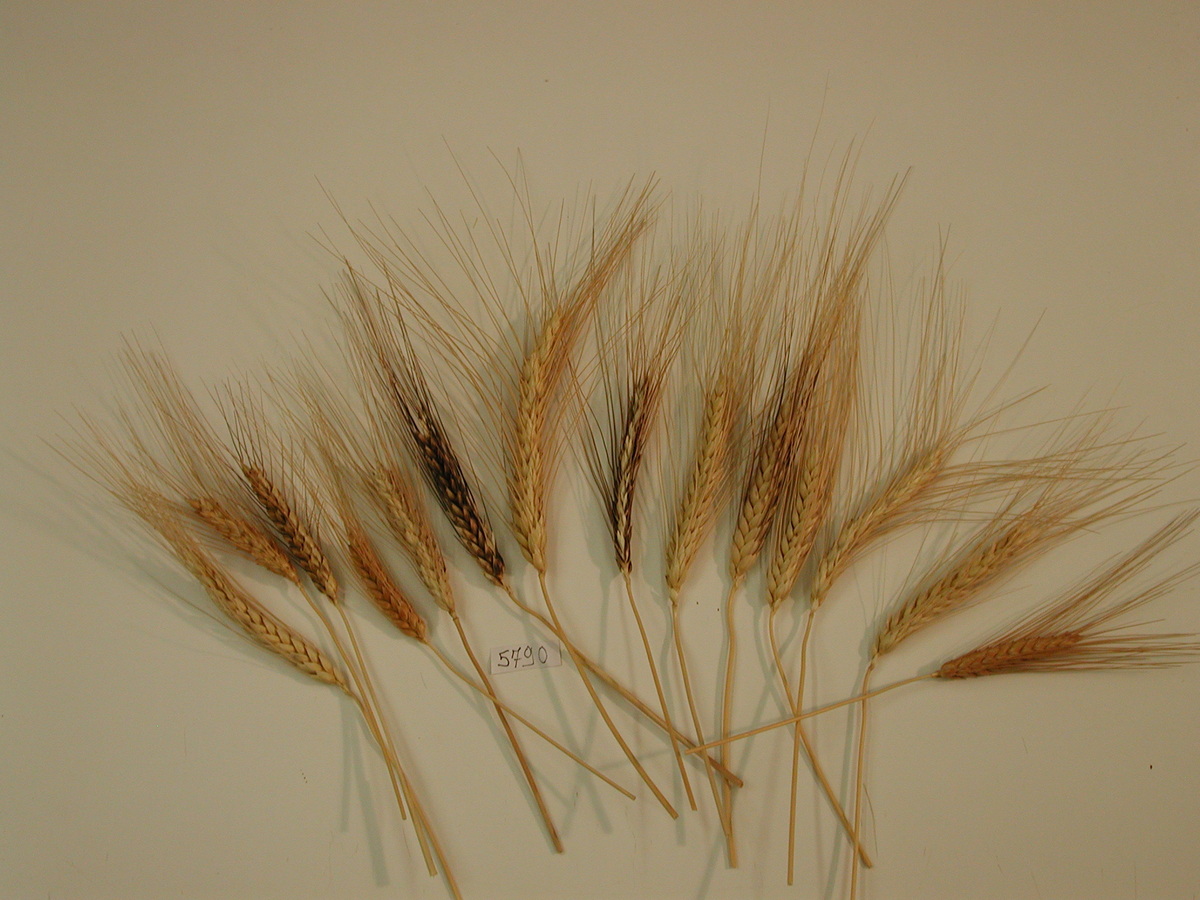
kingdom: Plantae
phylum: Tracheophyta
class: Liliopsida
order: Poales
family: Poaceae
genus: Triticum
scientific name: Triticum turgidum
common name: Wheat
